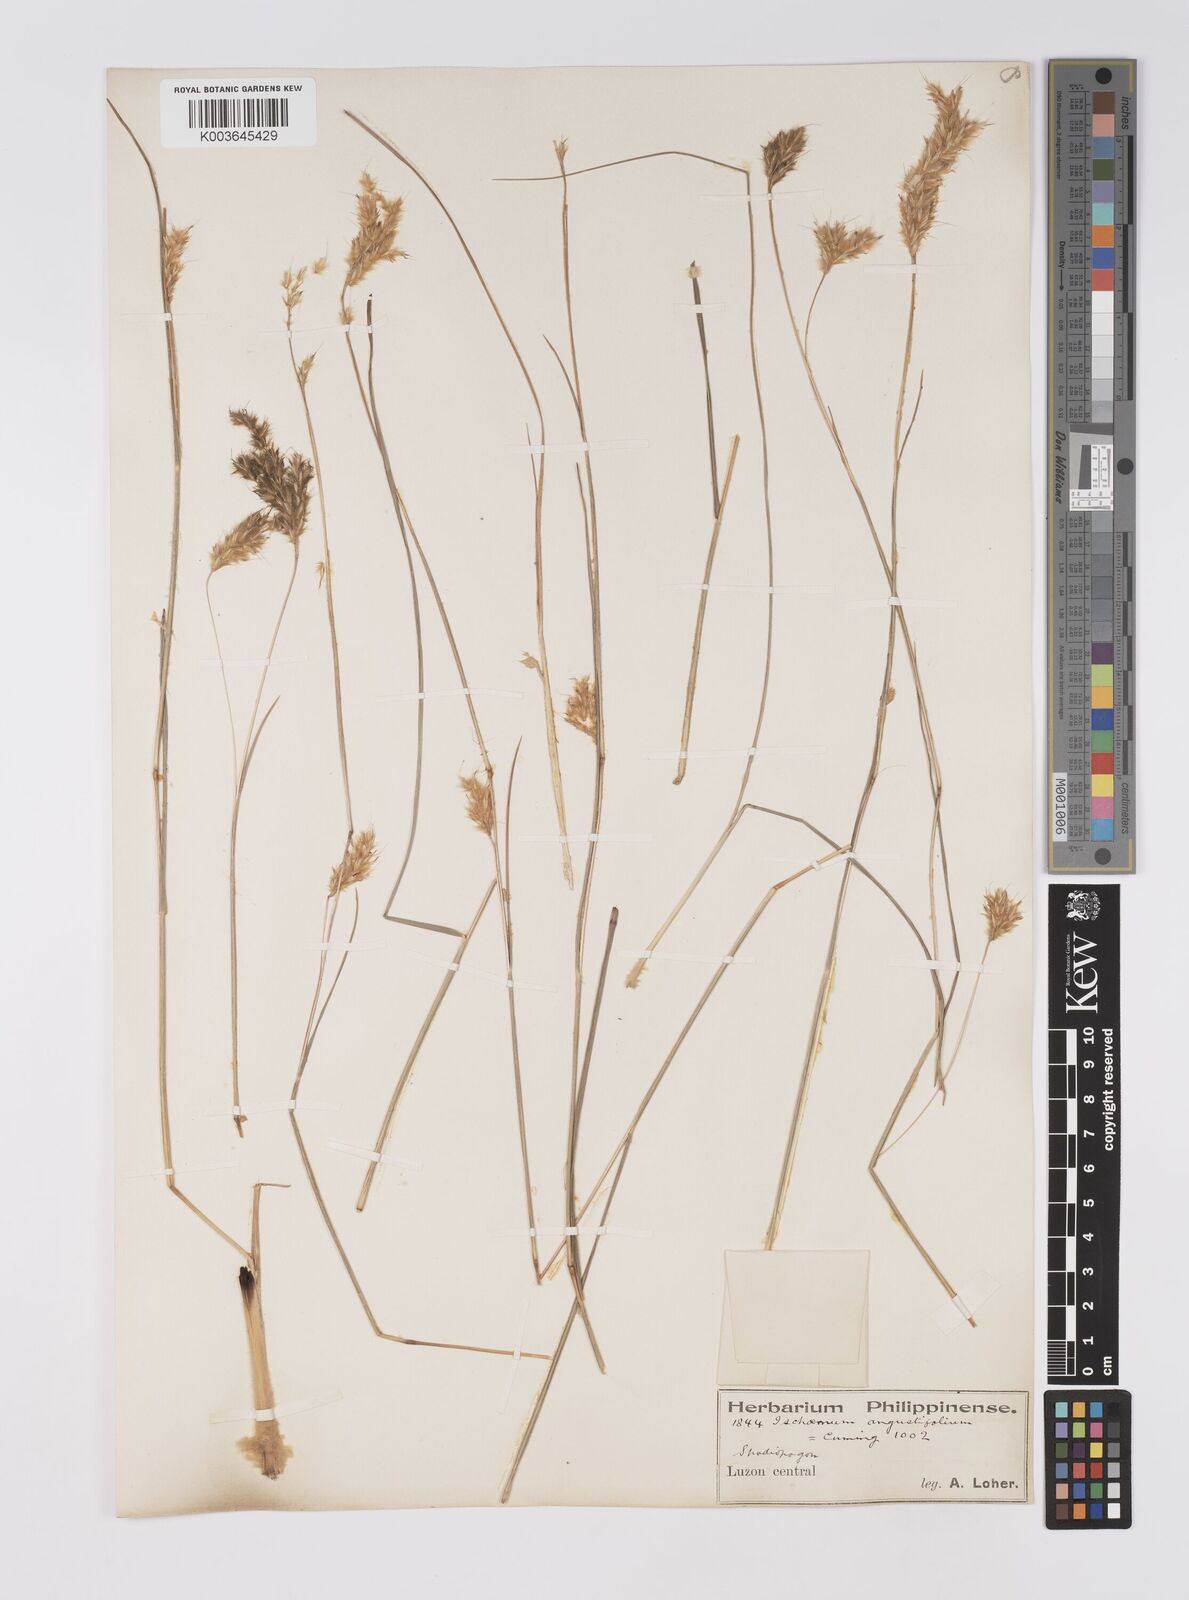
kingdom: Plantae
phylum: Tracheophyta
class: Liliopsida
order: Poales
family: Poaceae
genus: Eulaliopsis
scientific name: Eulaliopsis binata
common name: Baib grass
